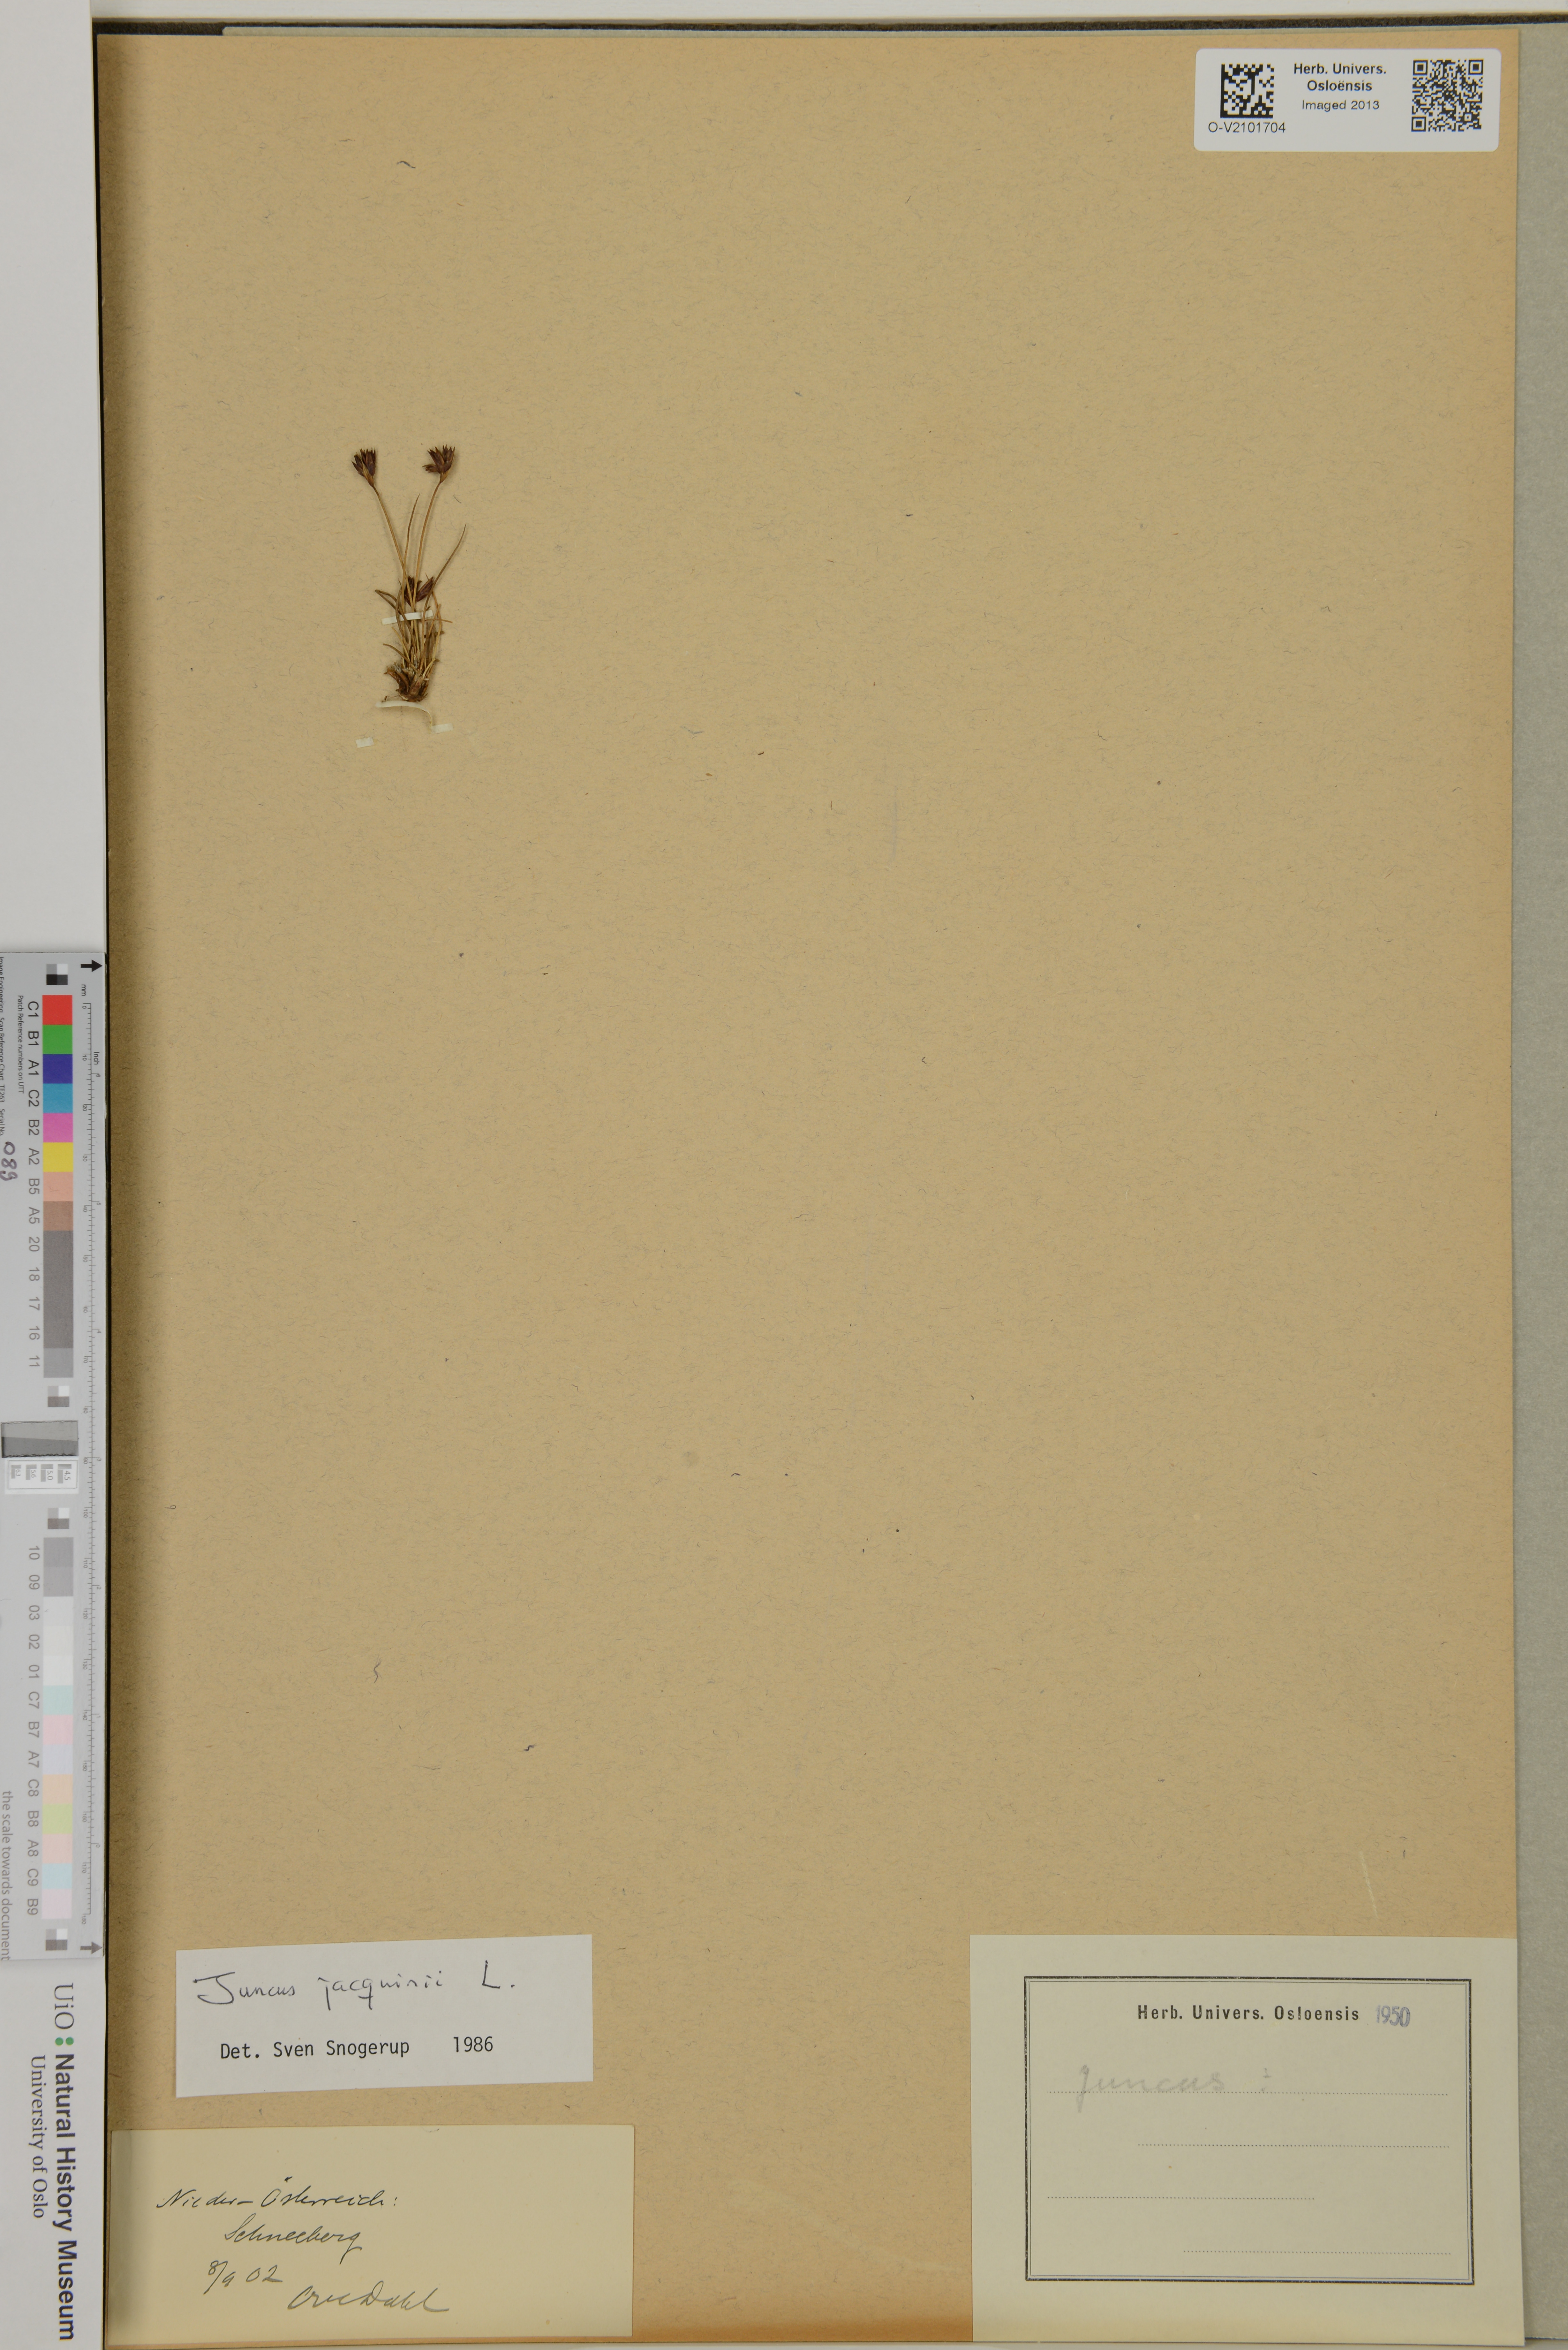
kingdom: Plantae
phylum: Tracheophyta
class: Liliopsida
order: Poales
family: Juncaceae
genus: Juncus
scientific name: Juncus jacquinii
